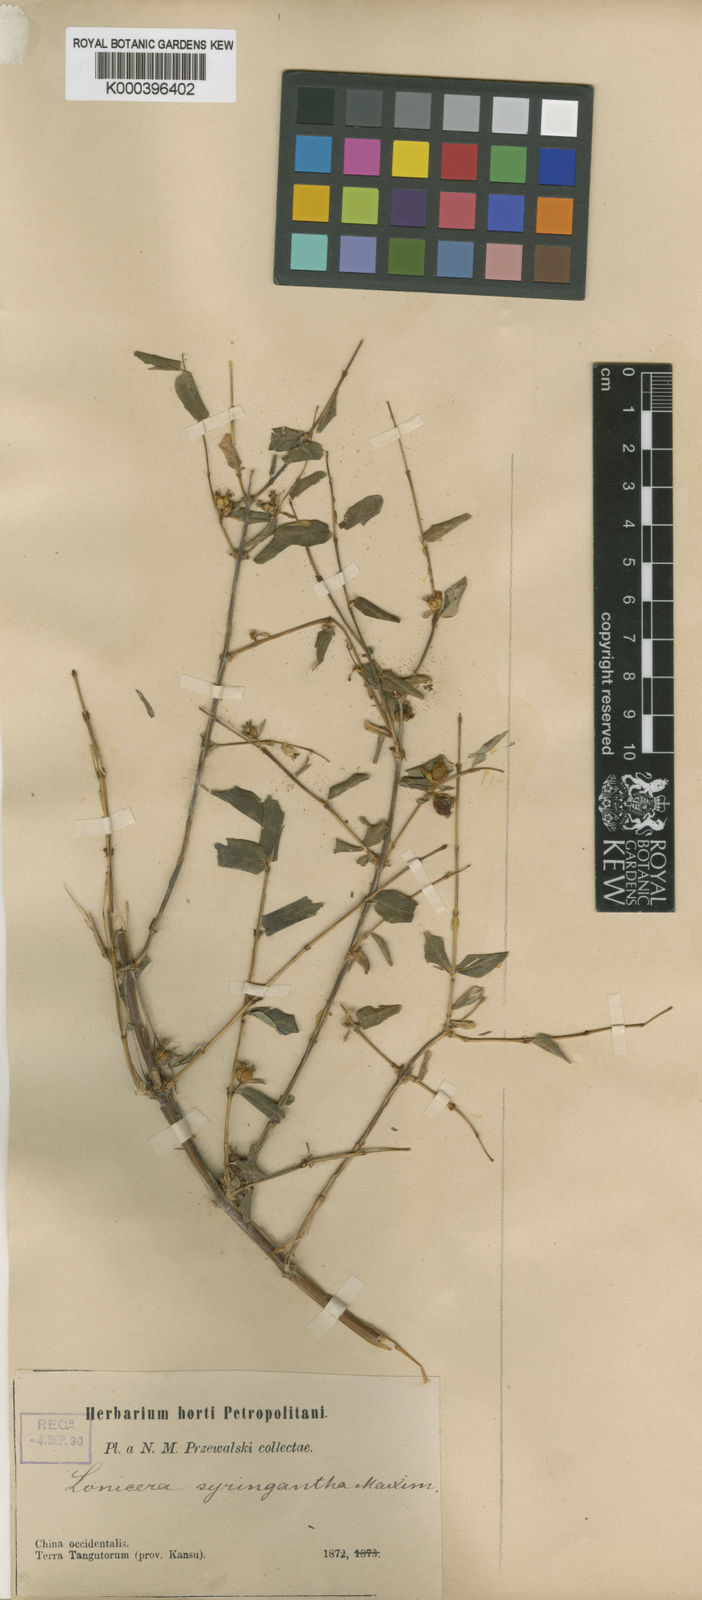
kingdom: Plantae
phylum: Tracheophyta
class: Magnoliopsida
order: Dipsacales
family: Caprifoliaceae
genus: Lonicera
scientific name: Lonicera rupicola
